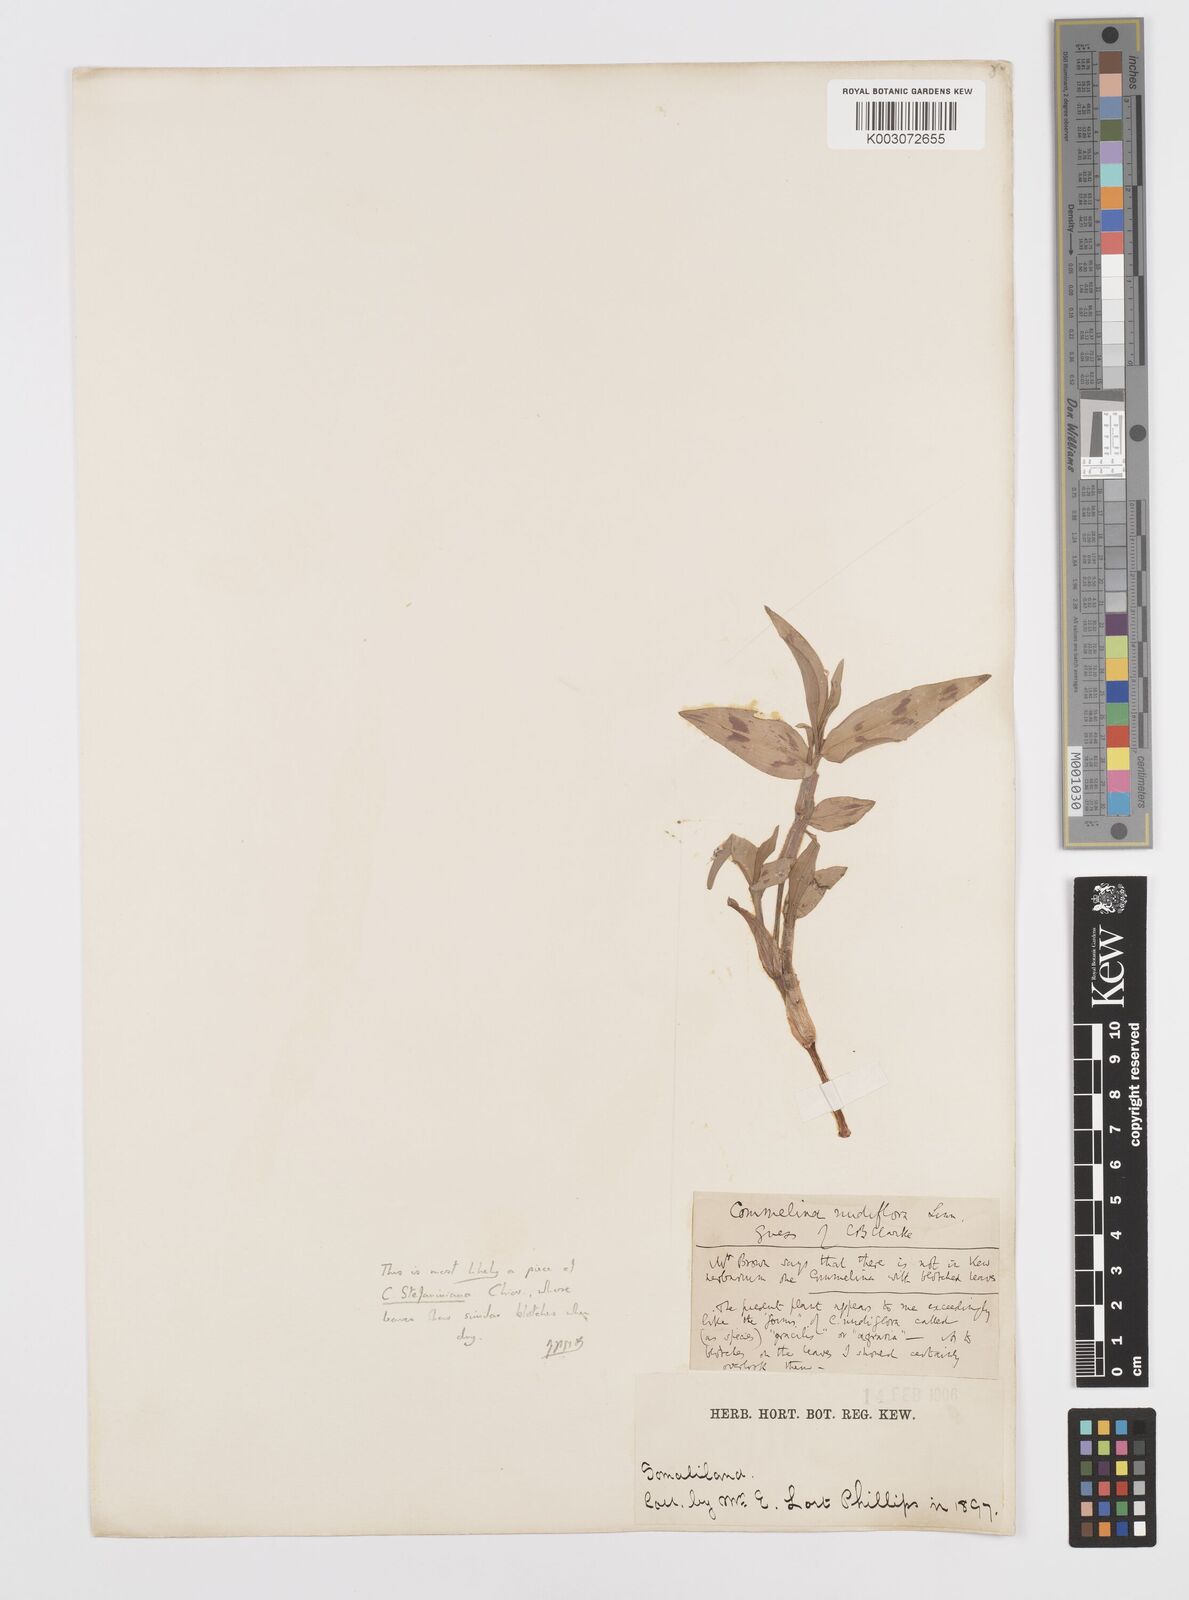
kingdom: Plantae
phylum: Tracheophyta
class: Liliopsida
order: Commelinales
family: Commelinaceae
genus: Commelina
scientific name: Commelina stefaniniana
